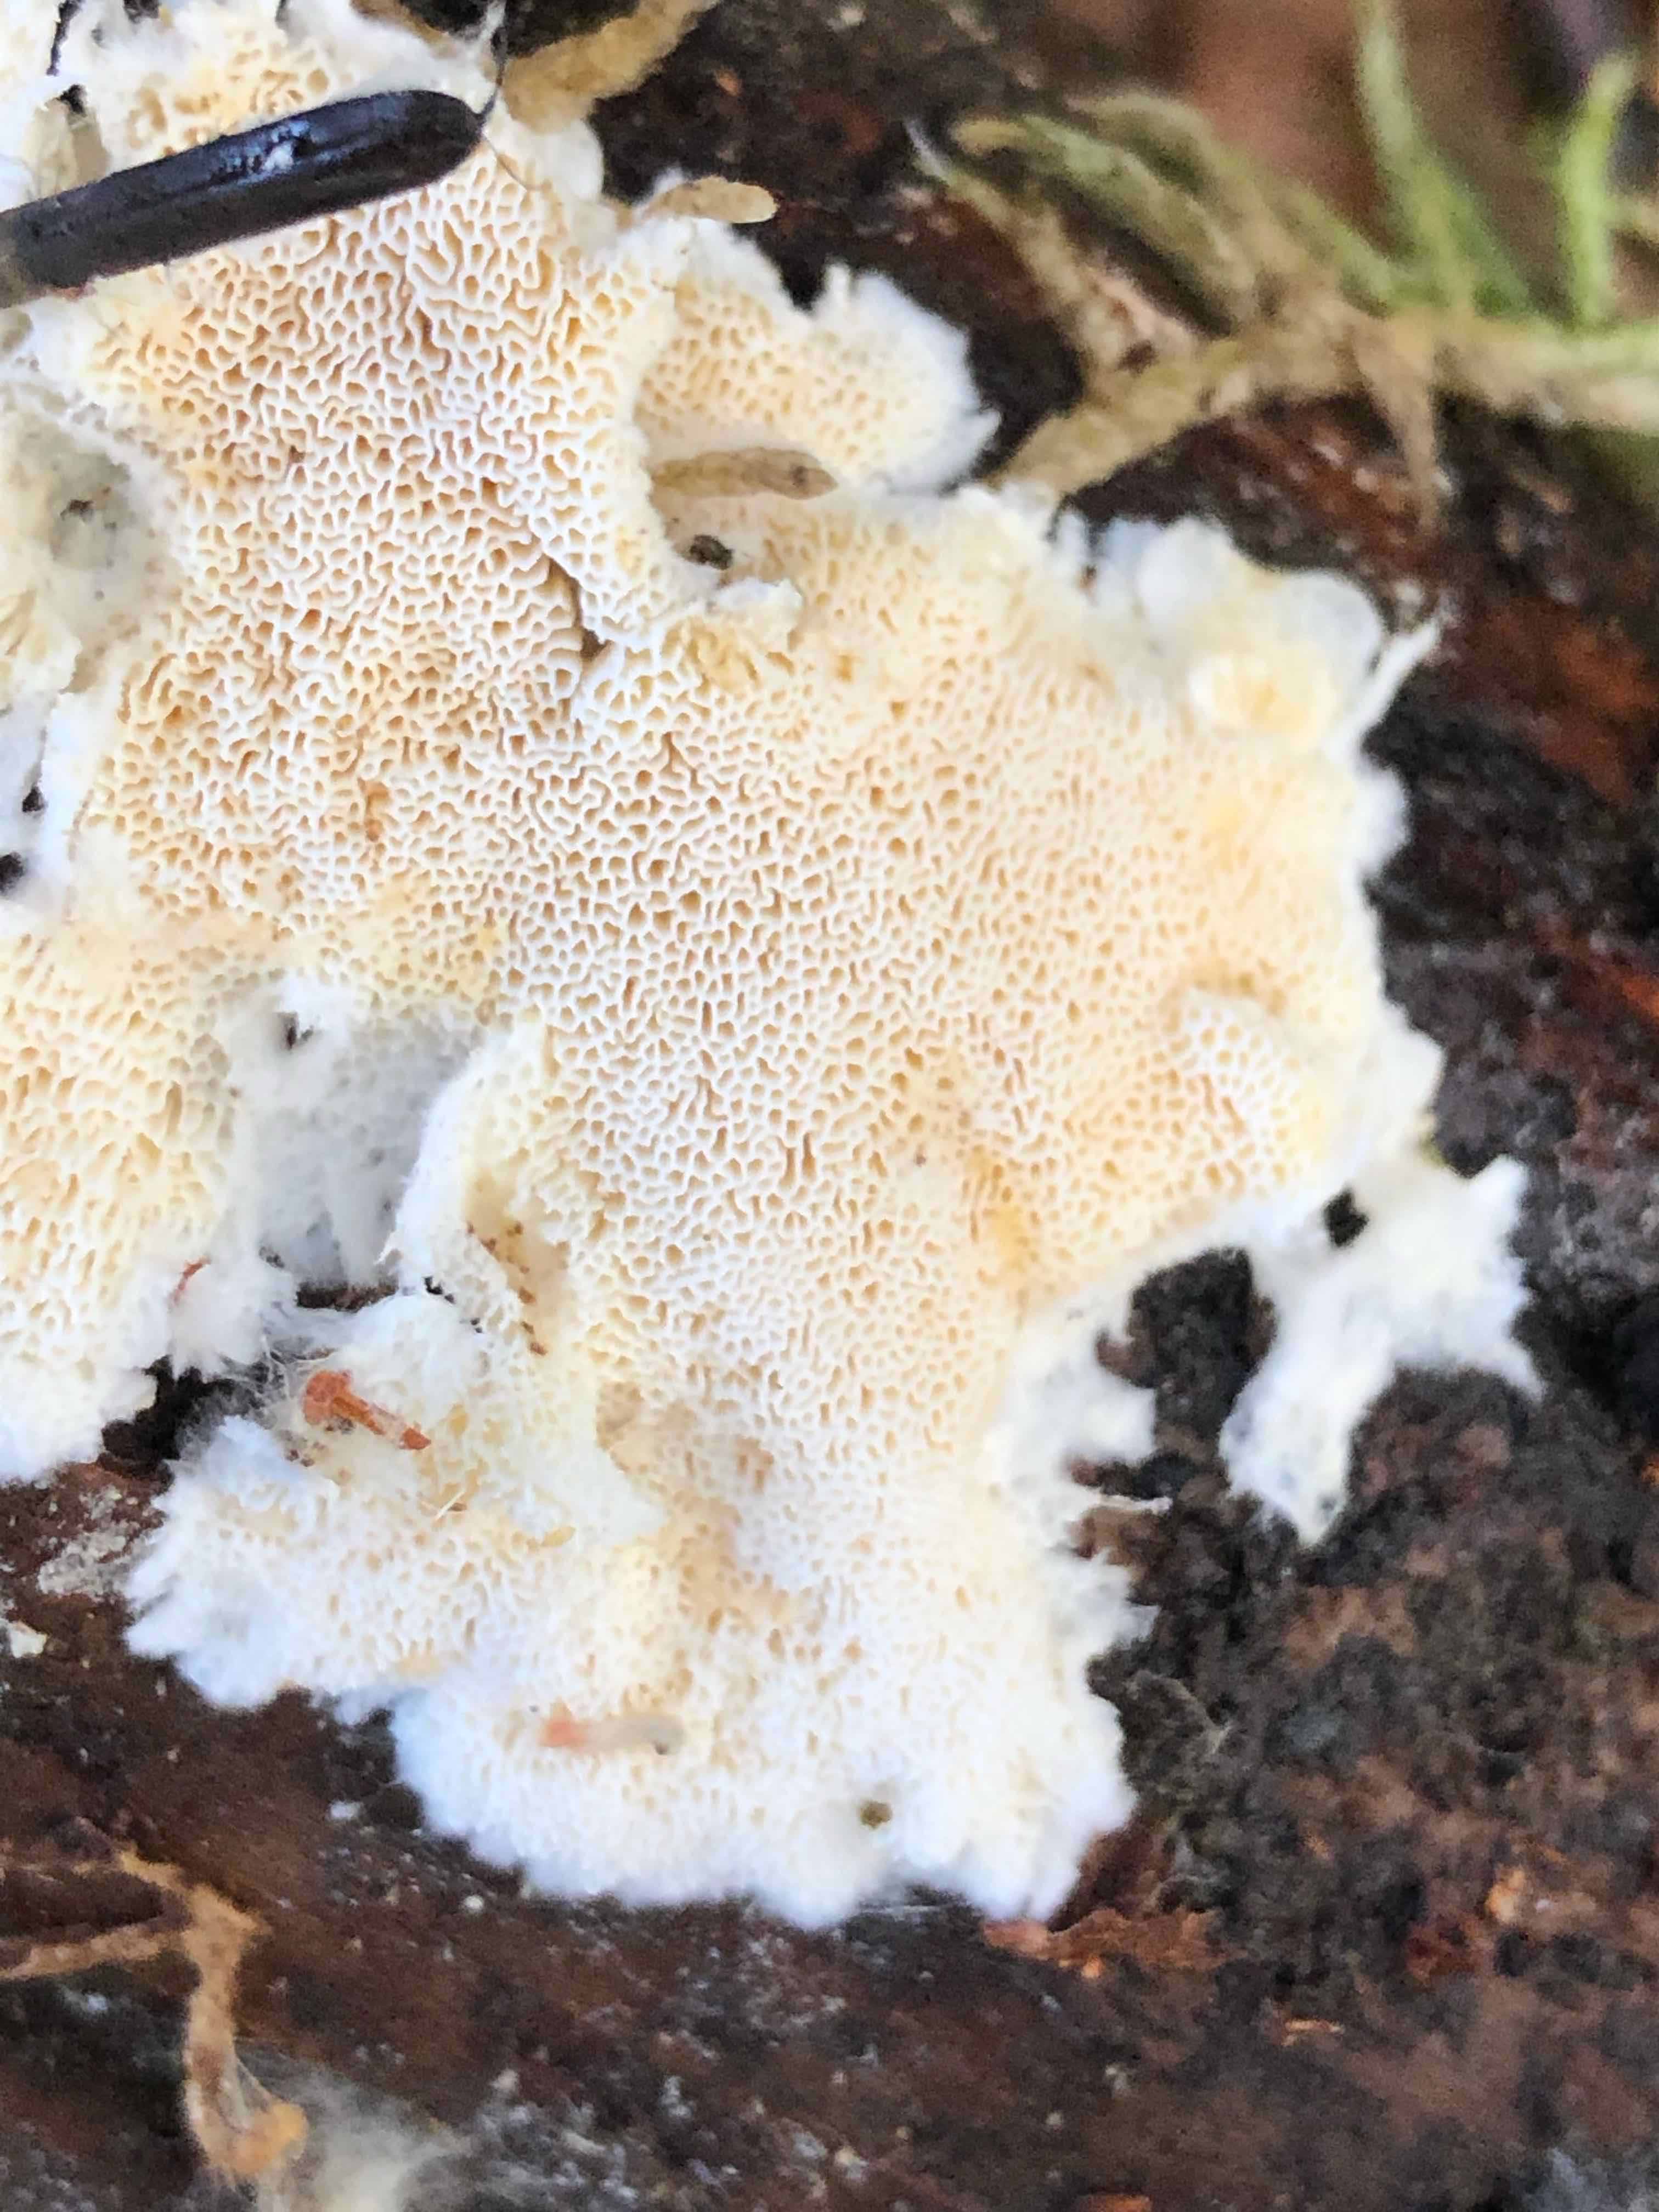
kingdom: Fungi
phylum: Basidiomycota
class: Agaricomycetes
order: Polyporales
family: Incrustoporiaceae
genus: Skeletocutis
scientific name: Skeletocutis amorpha
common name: orange krystalporesvamp
